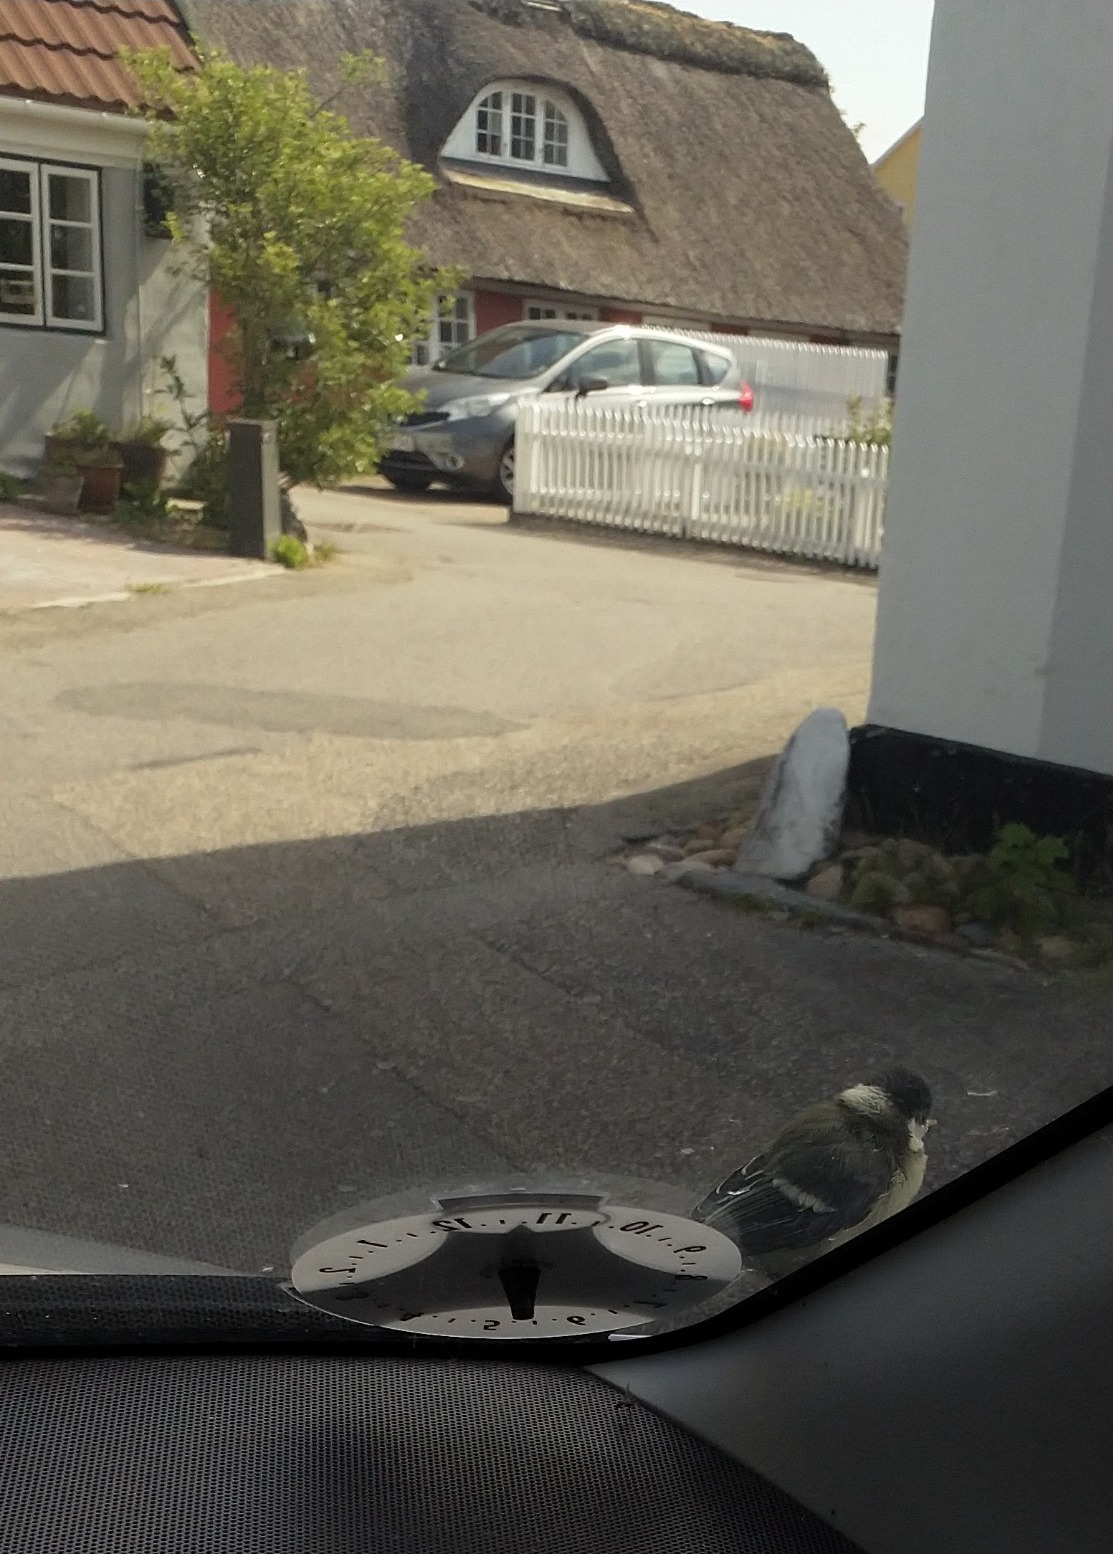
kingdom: Animalia
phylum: Chordata
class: Aves
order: Passeriformes
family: Paridae
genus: Parus
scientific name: Parus major
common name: Musvit
